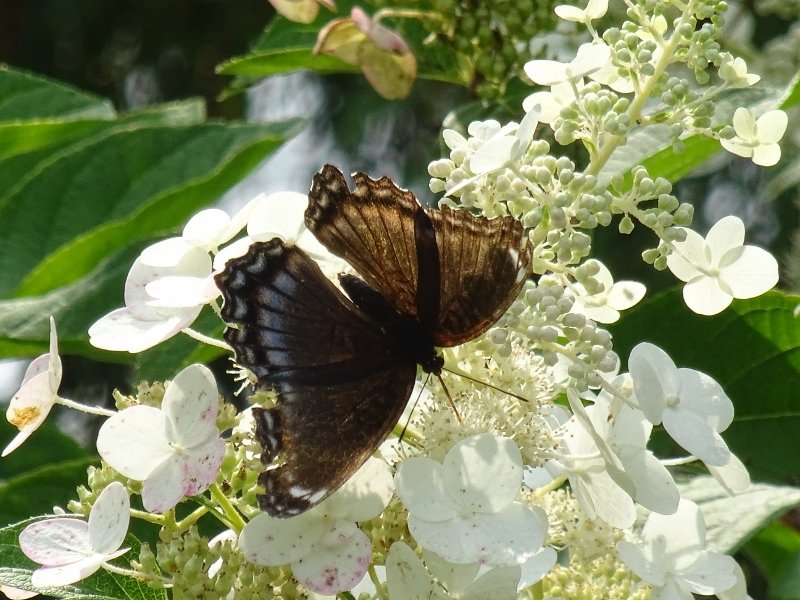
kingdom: Animalia
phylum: Arthropoda
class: Insecta
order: Lepidoptera
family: Nymphalidae
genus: Limenitis
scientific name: Limenitis astyanax
